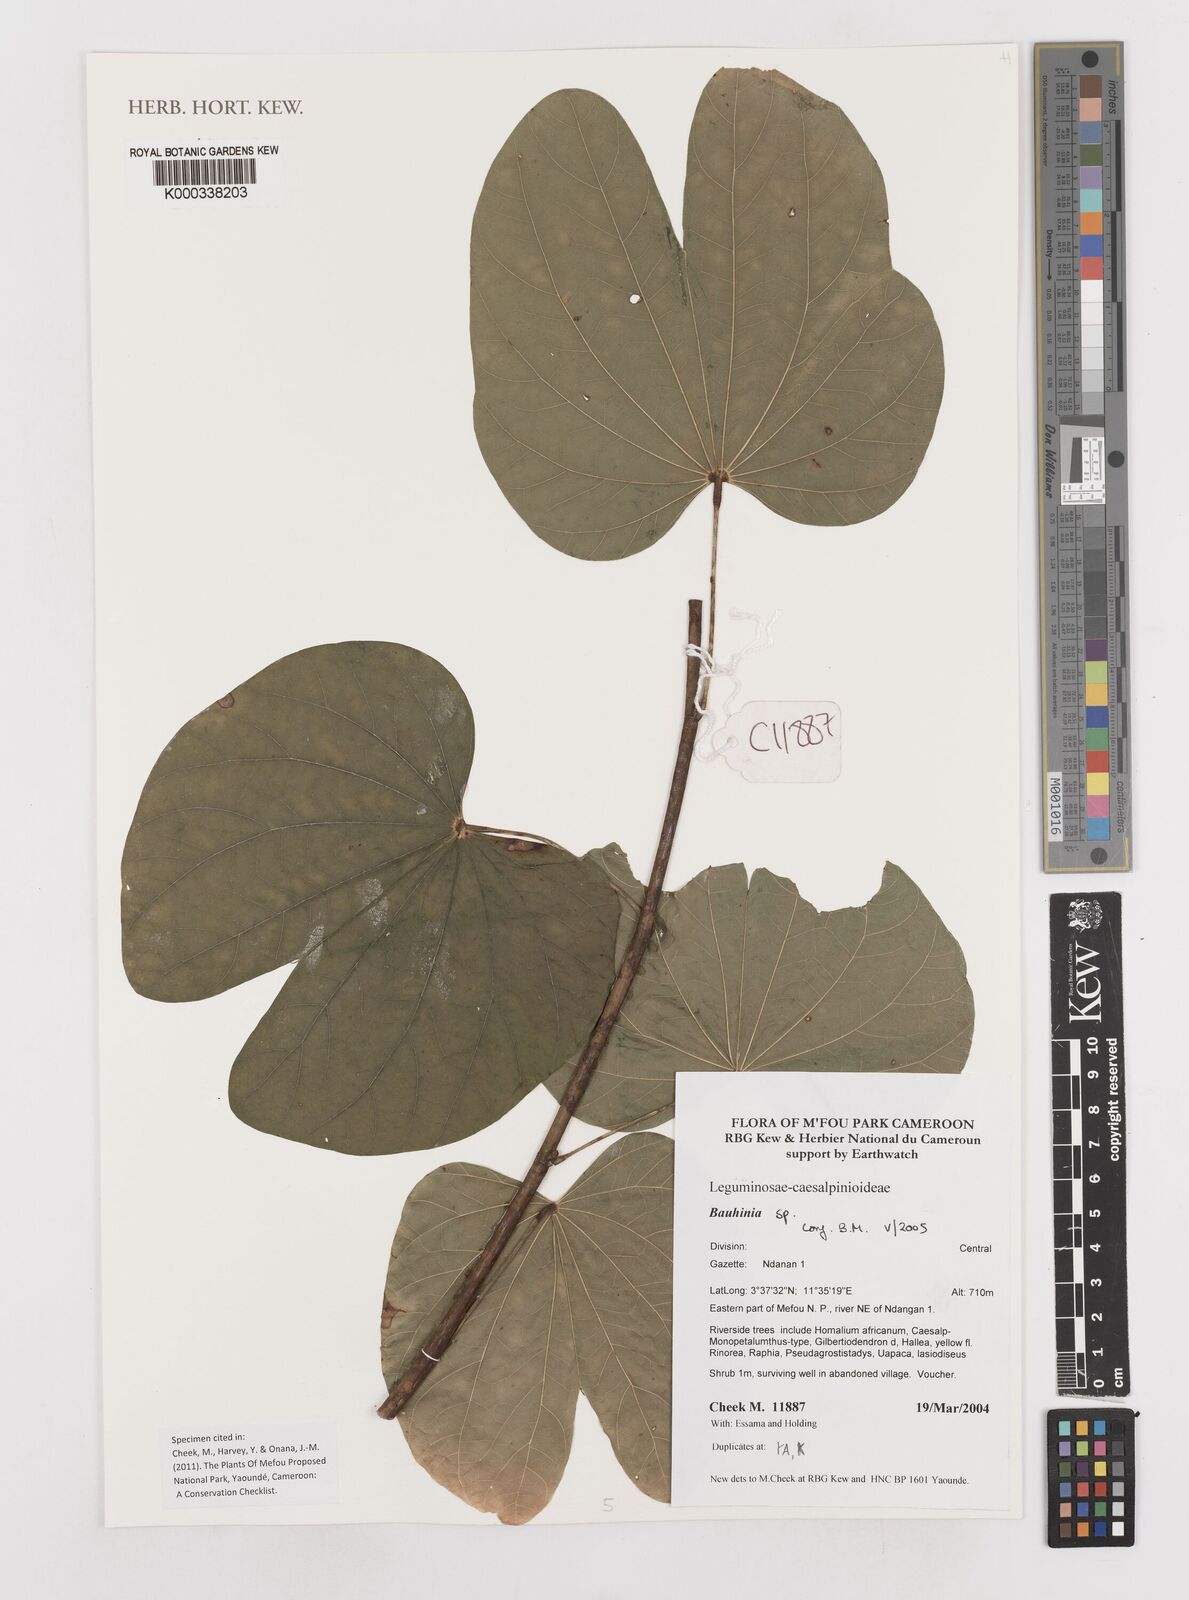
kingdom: Plantae
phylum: Tracheophyta
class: Magnoliopsida
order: Fabales
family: Fabaceae
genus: Bauhinia
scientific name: Bauhinia monandra
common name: Napoleon's plume
